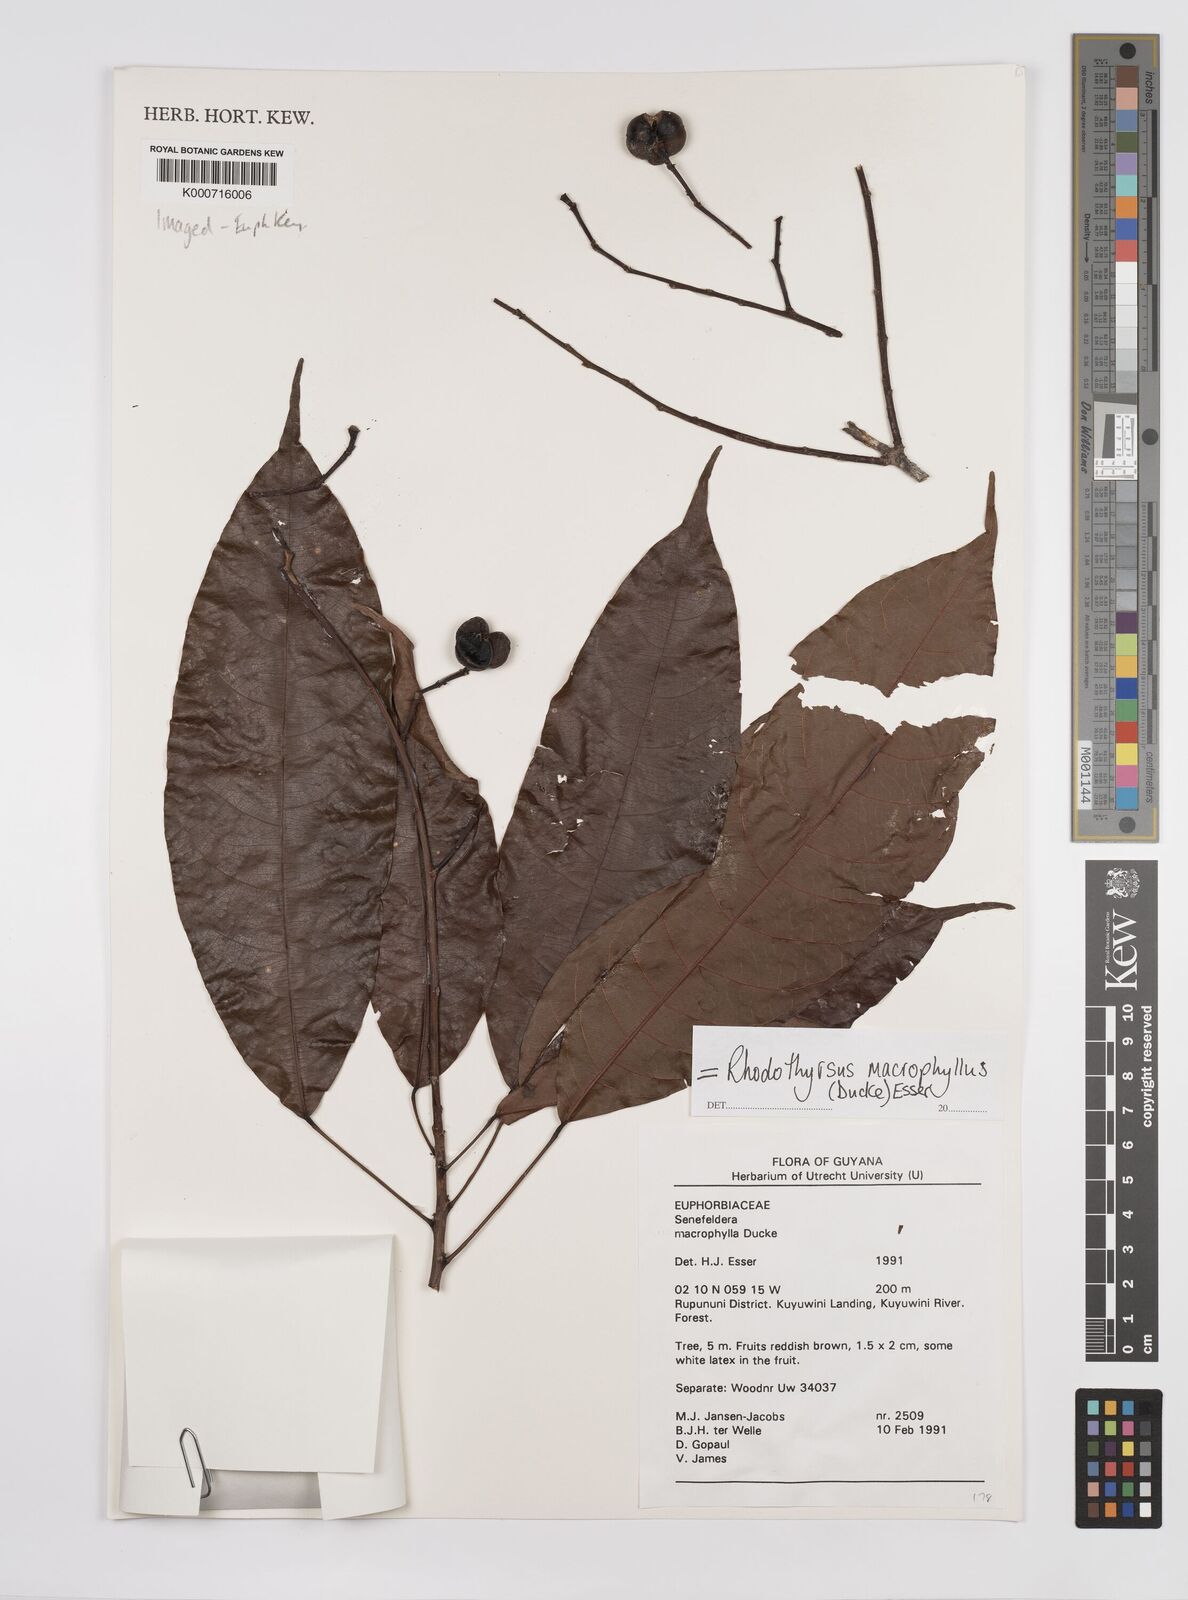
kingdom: Plantae
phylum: Tracheophyta
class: Magnoliopsida
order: Malpighiales
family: Euphorbiaceae
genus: Rhodothyrsus
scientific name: Rhodothyrsus macrophyllus
